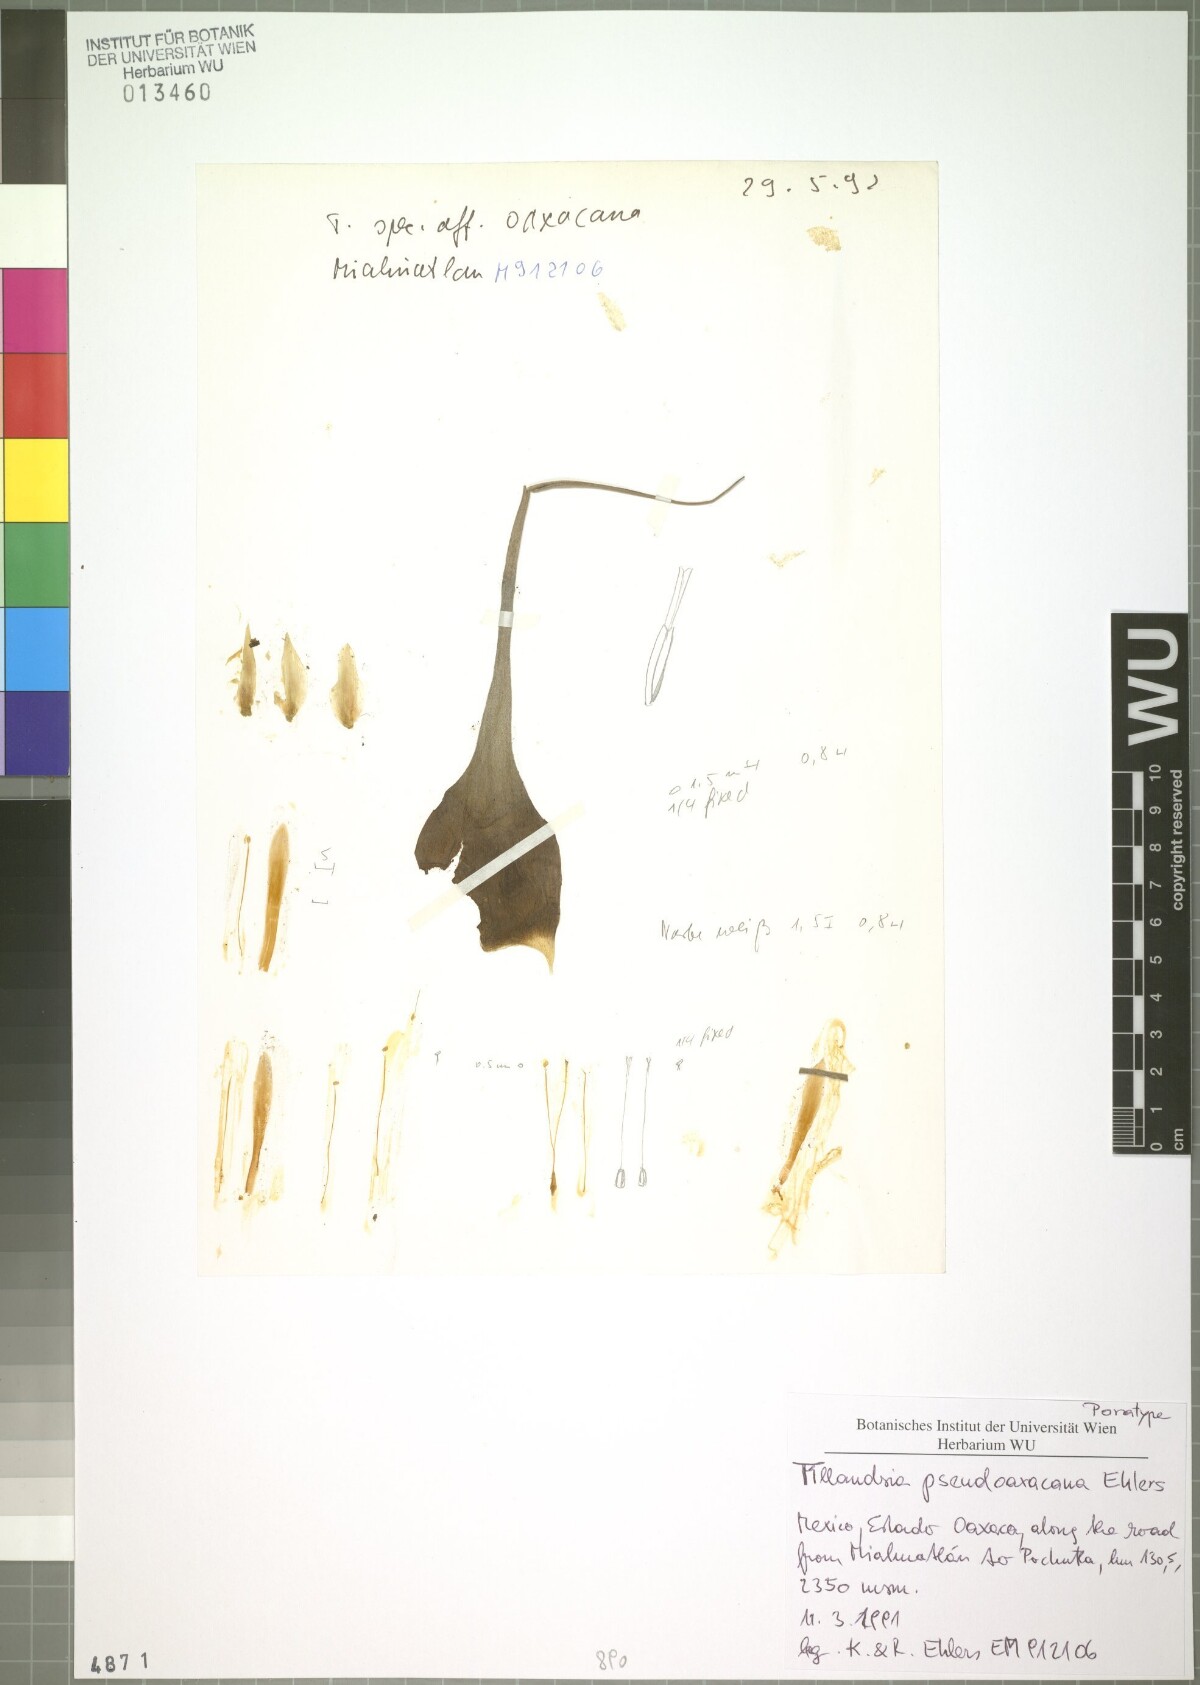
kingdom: Plantae
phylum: Tracheophyta
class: Liliopsida
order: Poales
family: Bromeliaceae
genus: Tillandsia
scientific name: Tillandsia pseudooaxacana
